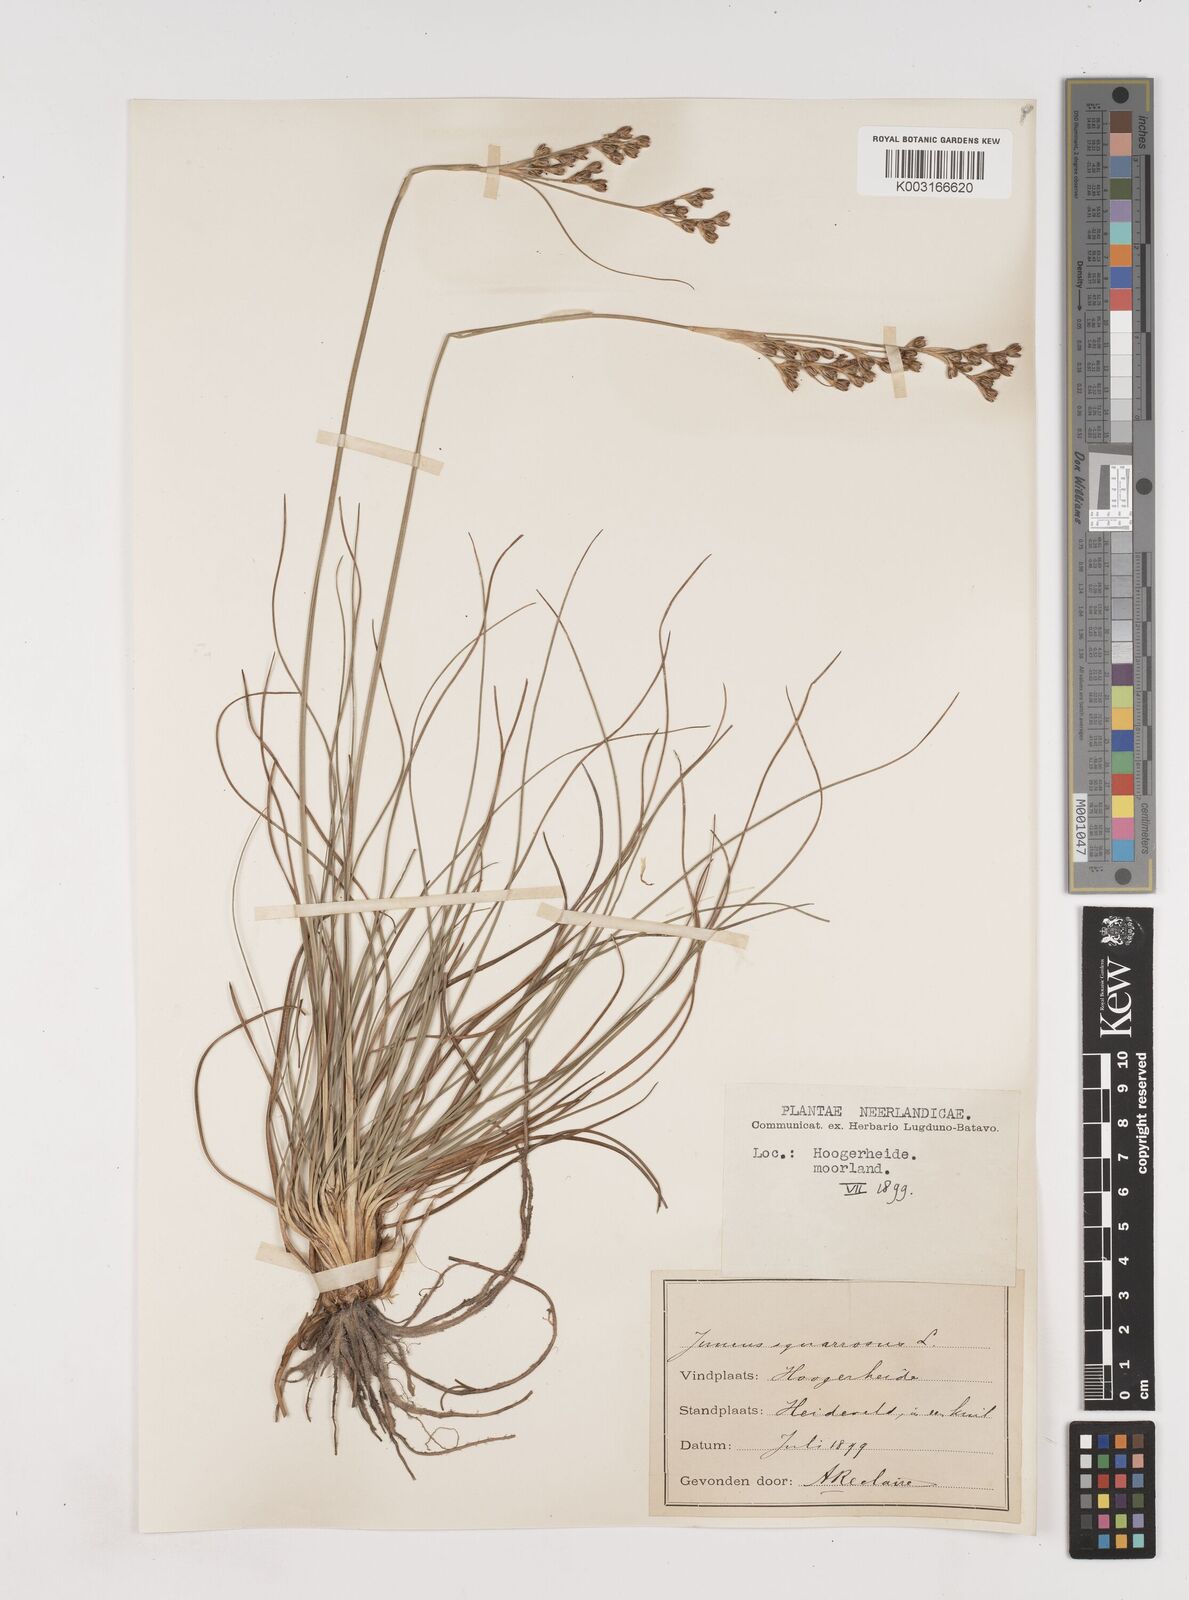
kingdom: Plantae
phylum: Tracheophyta
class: Liliopsida
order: Poales
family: Juncaceae
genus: Juncus
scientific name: Juncus squarrosus
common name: Heath rush
